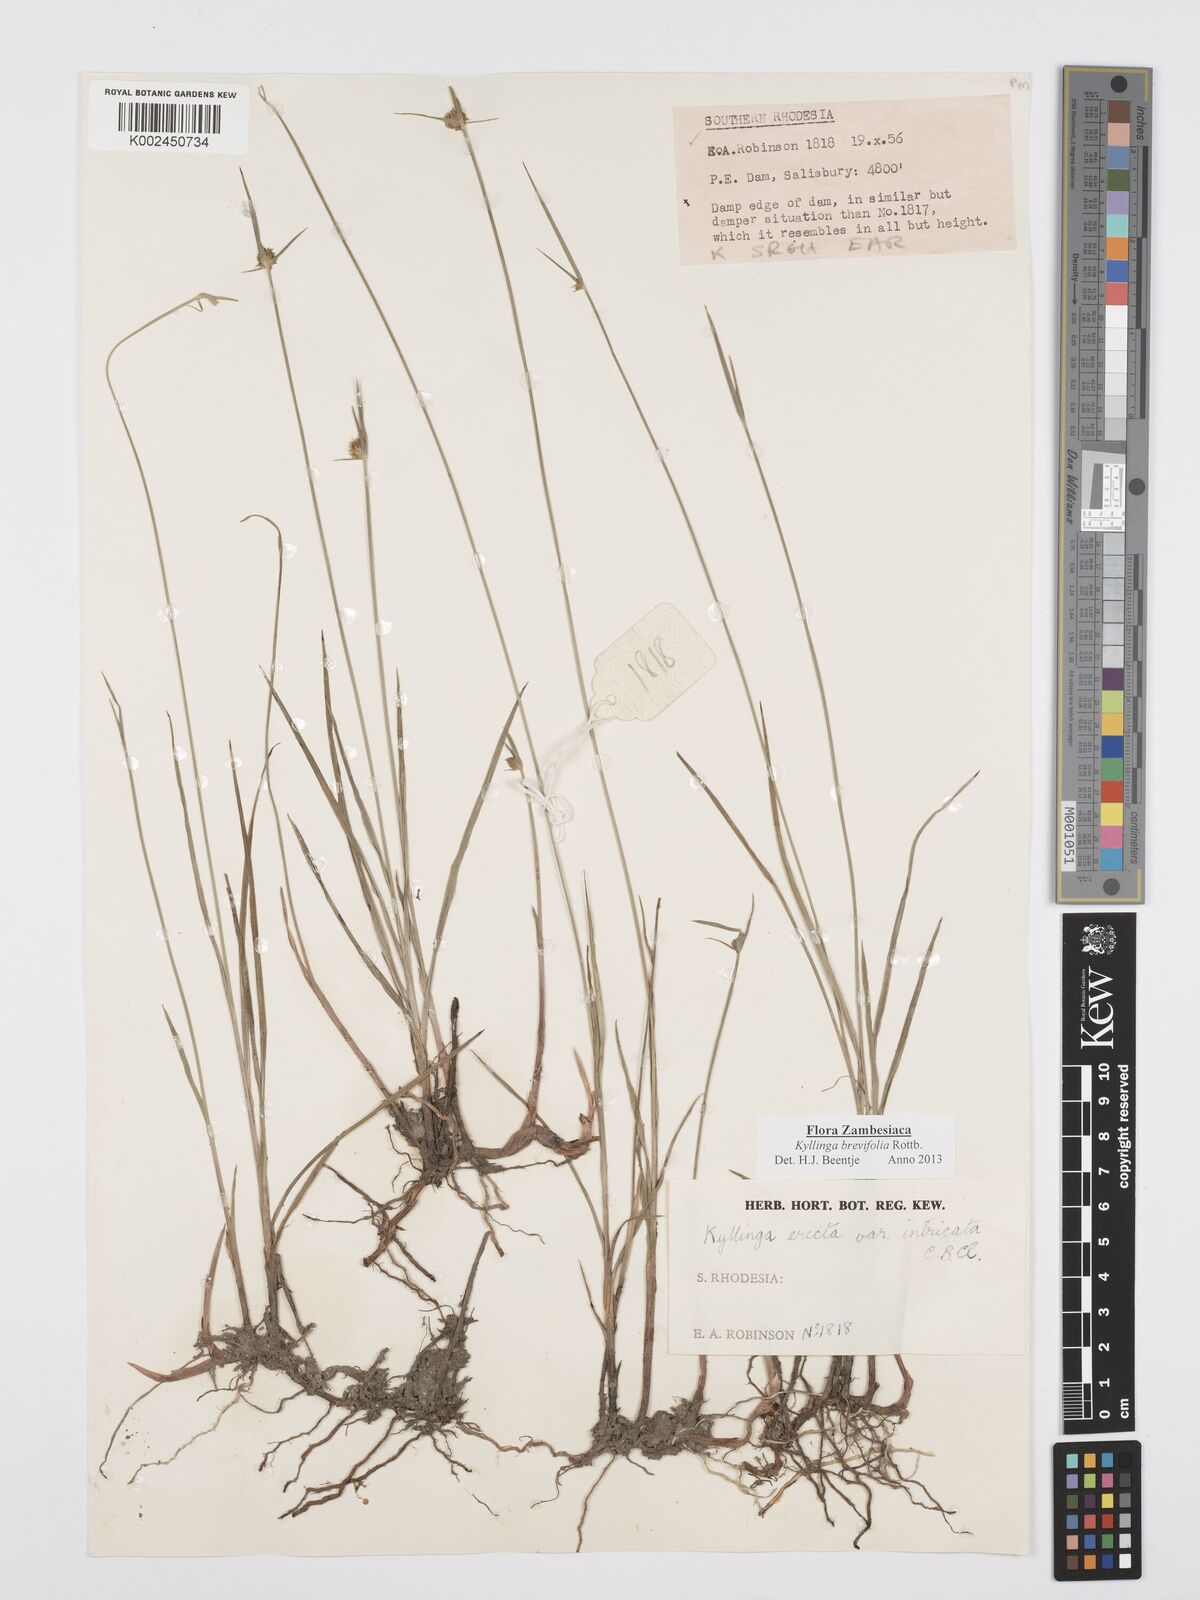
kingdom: Plantae
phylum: Tracheophyta
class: Liliopsida
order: Poales
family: Cyperaceae
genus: Cyperus
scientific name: Cyperus brevifolius
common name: Globe kyllinga
